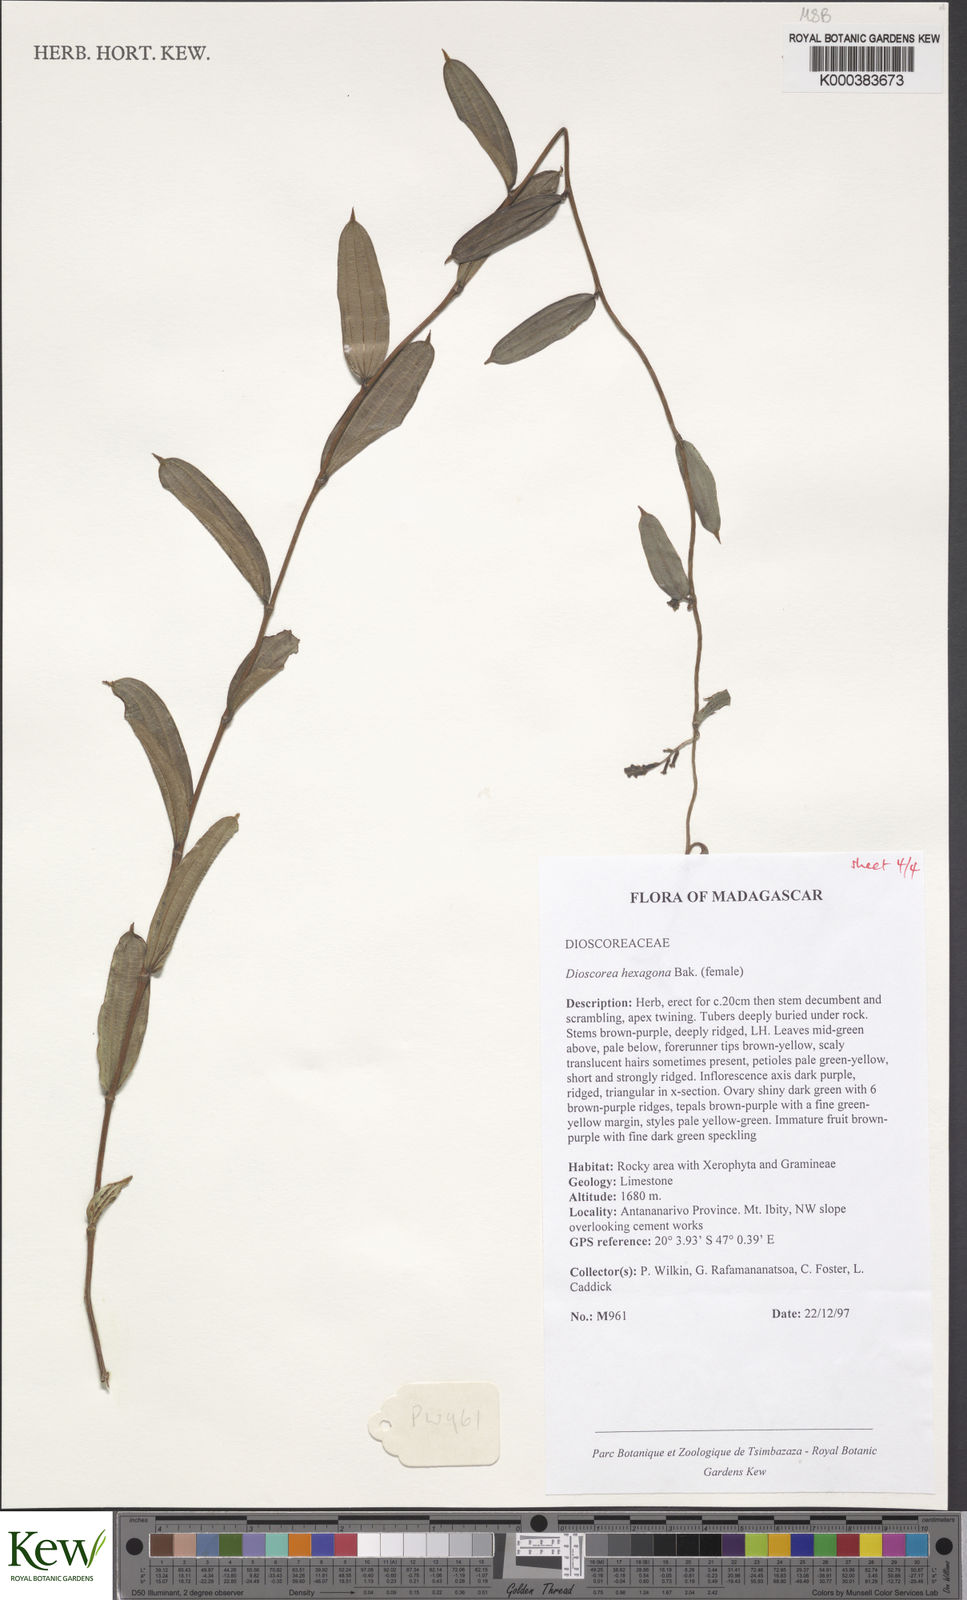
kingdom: Plantae
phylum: Tracheophyta
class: Liliopsida
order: Dioscoreales
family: Dioscoreaceae
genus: Dioscorea
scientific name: Dioscorea hexagona
